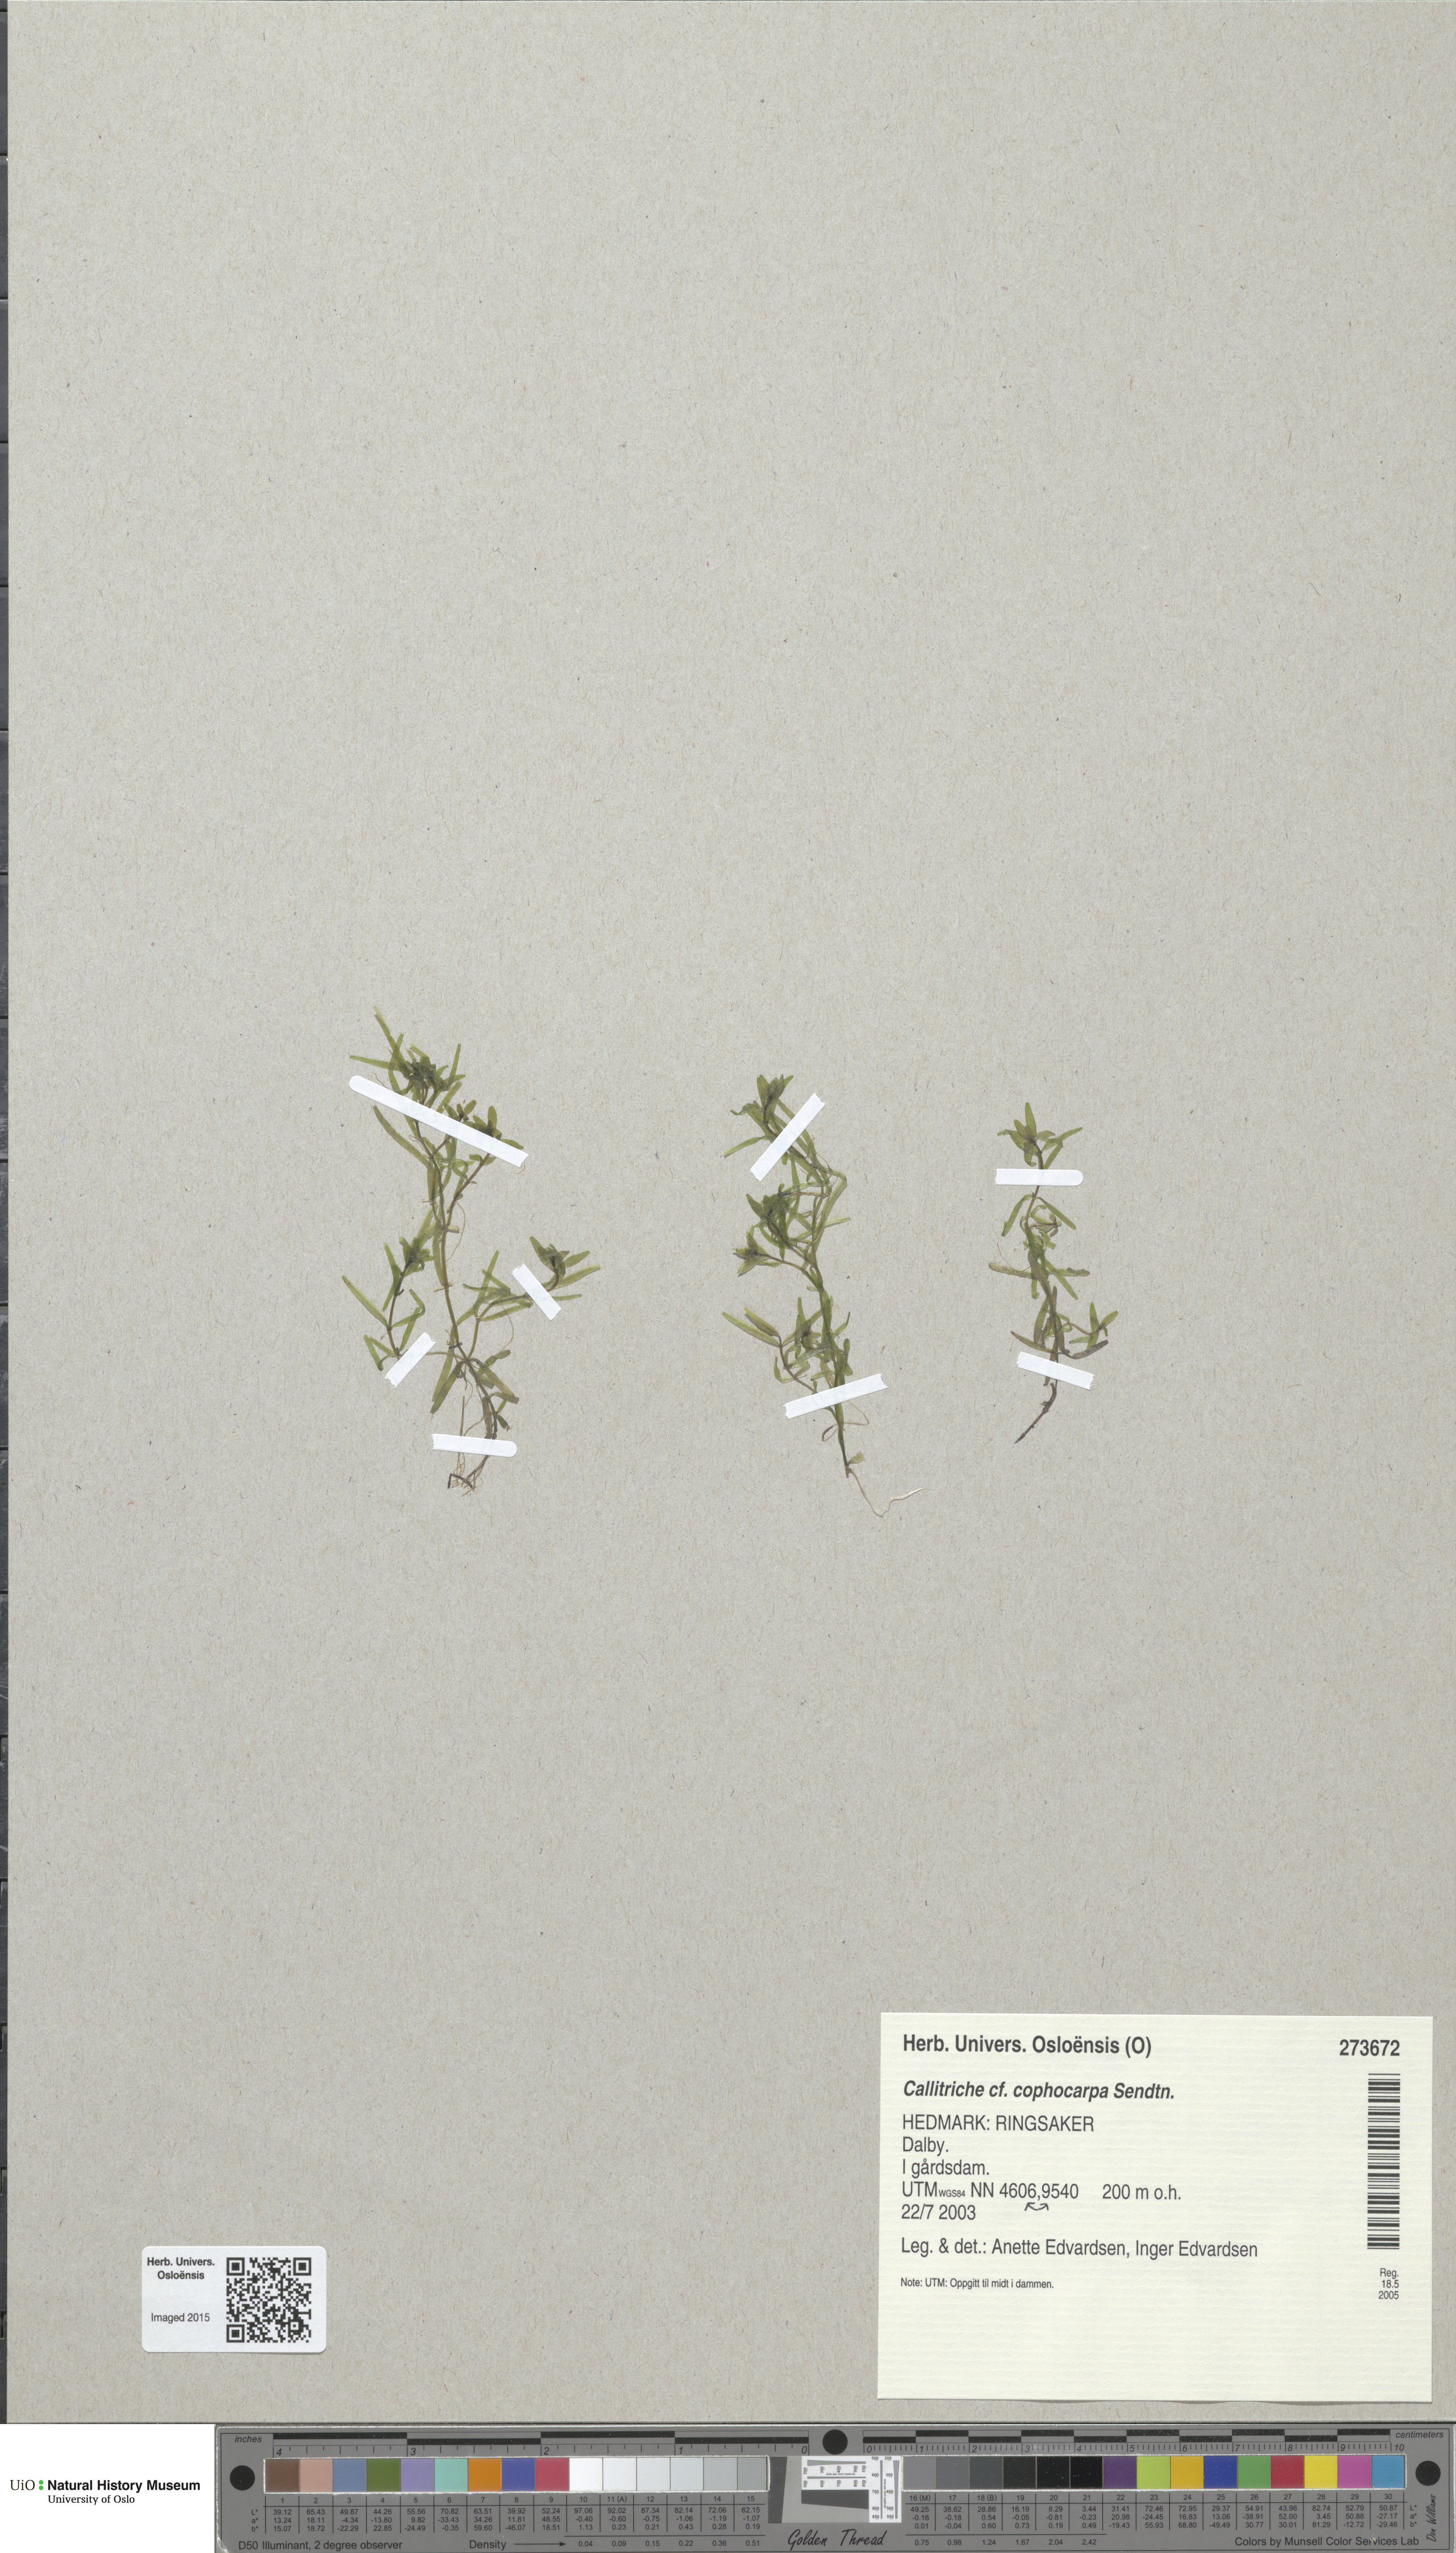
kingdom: Plantae
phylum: Tracheophyta
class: Magnoliopsida
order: Lamiales
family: Plantaginaceae
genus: Callitriche
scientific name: Callitriche cophocarpa
